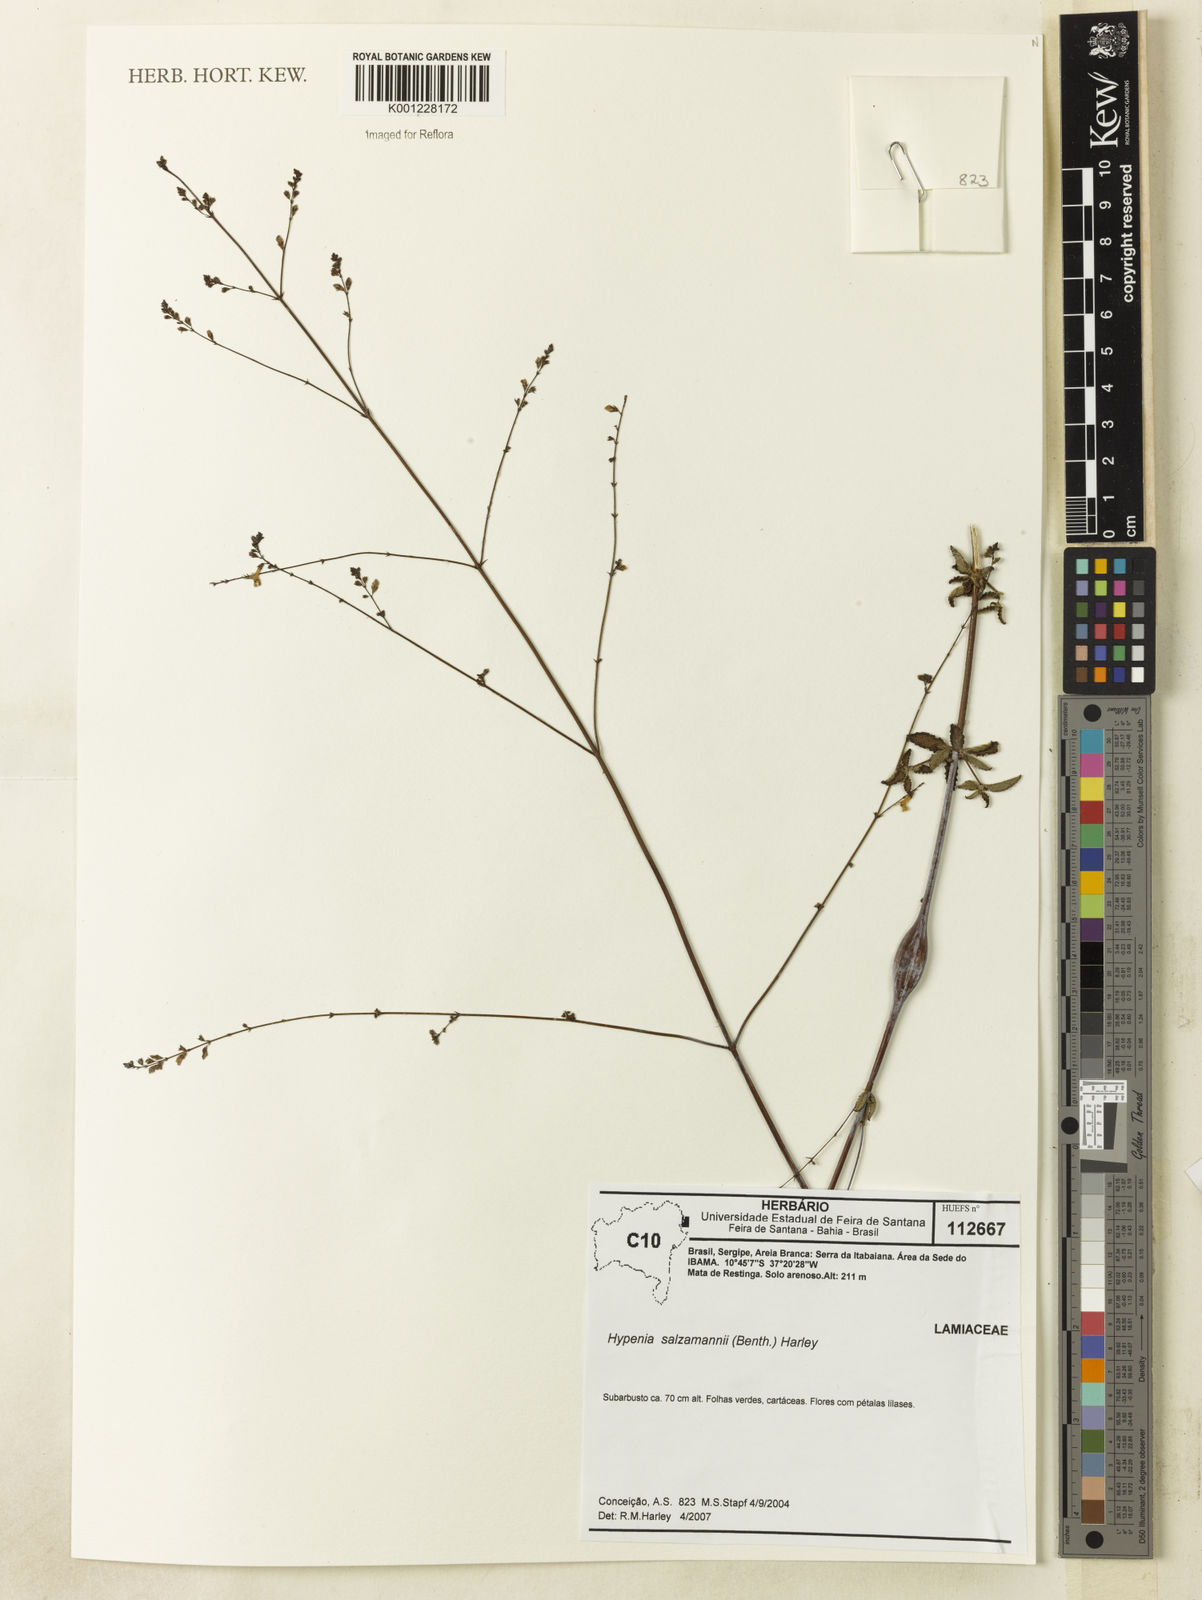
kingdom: Plantae
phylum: Tracheophyta
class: Magnoliopsida
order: Lamiales
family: Lamiaceae
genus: Hypenia
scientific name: Hypenia salzmannii
